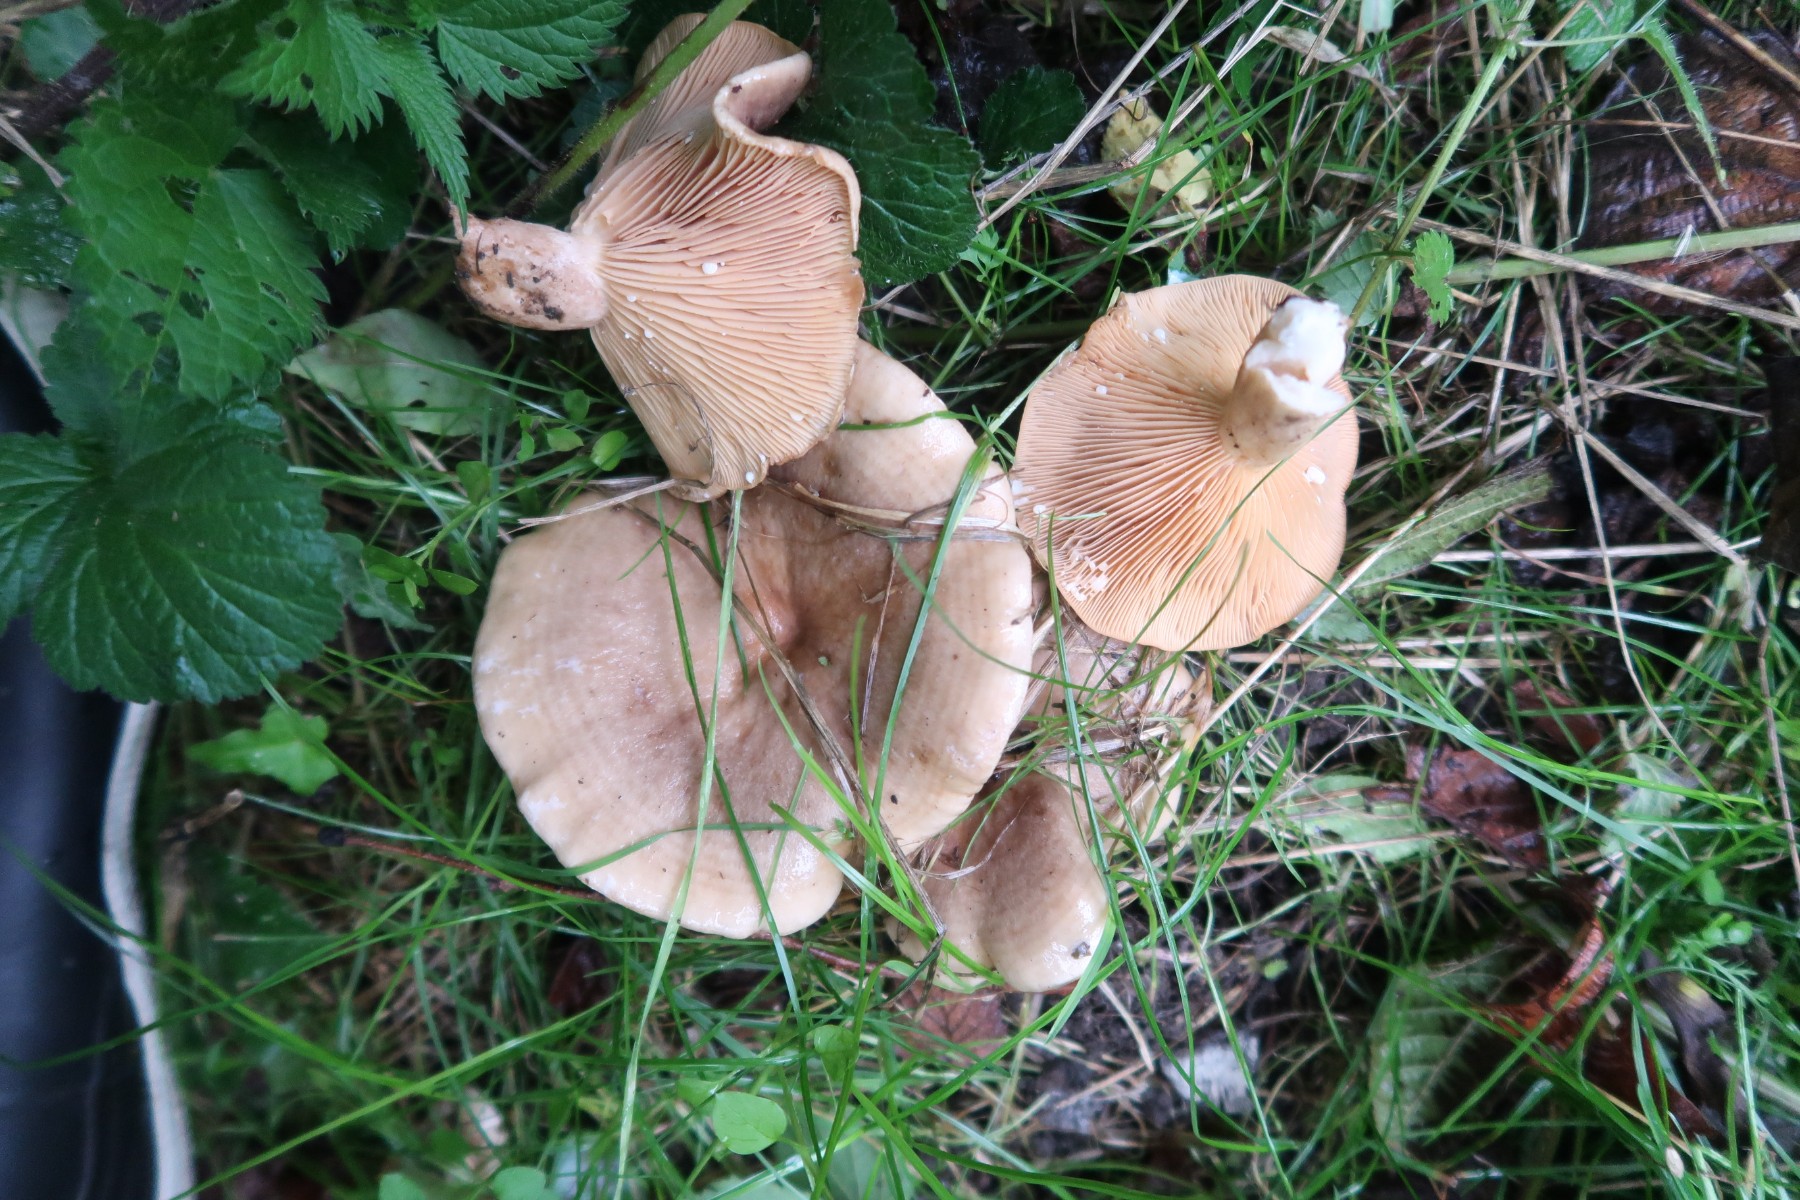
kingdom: Fungi
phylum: Basidiomycota
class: Agaricomycetes
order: Russulales
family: Russulaceae
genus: Lactarius
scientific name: Lactarius pyrogalus
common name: hassel-mælkehat
